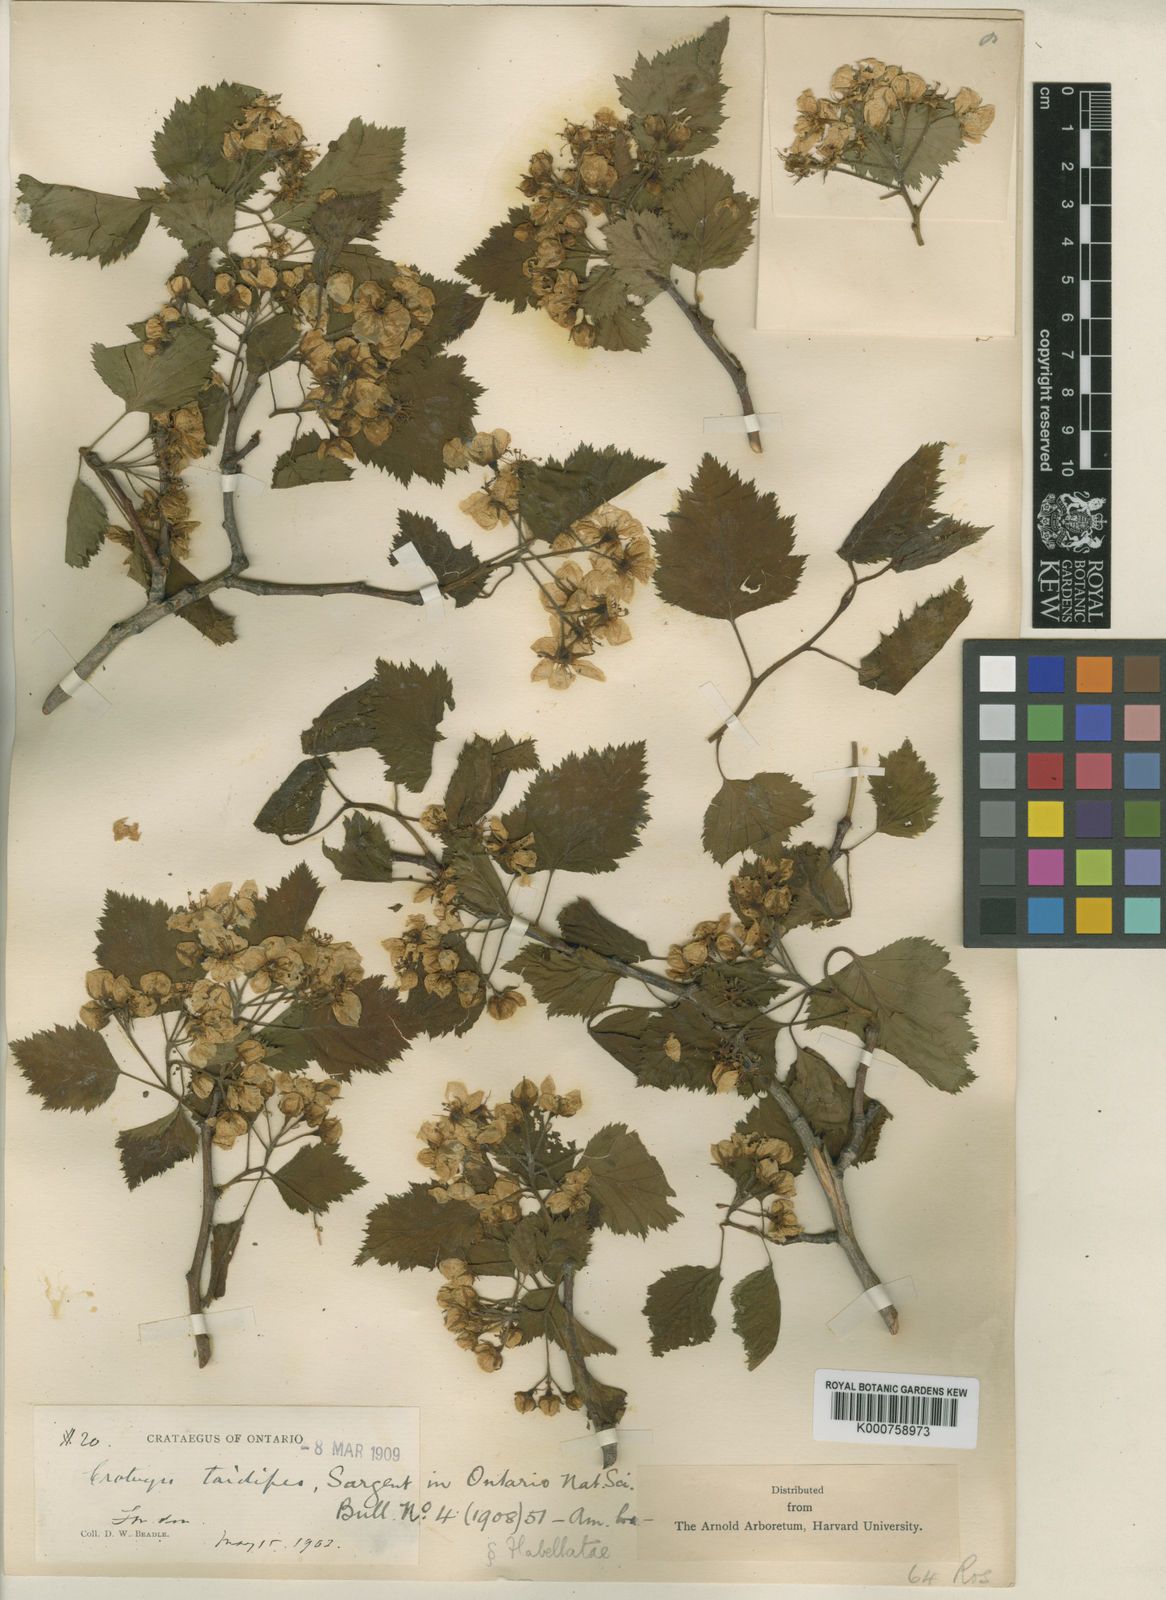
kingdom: Plantae
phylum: Tracheophyta
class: Magnoliopsida
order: Rosales
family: Rosaceae
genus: Crataegus
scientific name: Crataegus holmesiana
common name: Holmes' hawthorn
